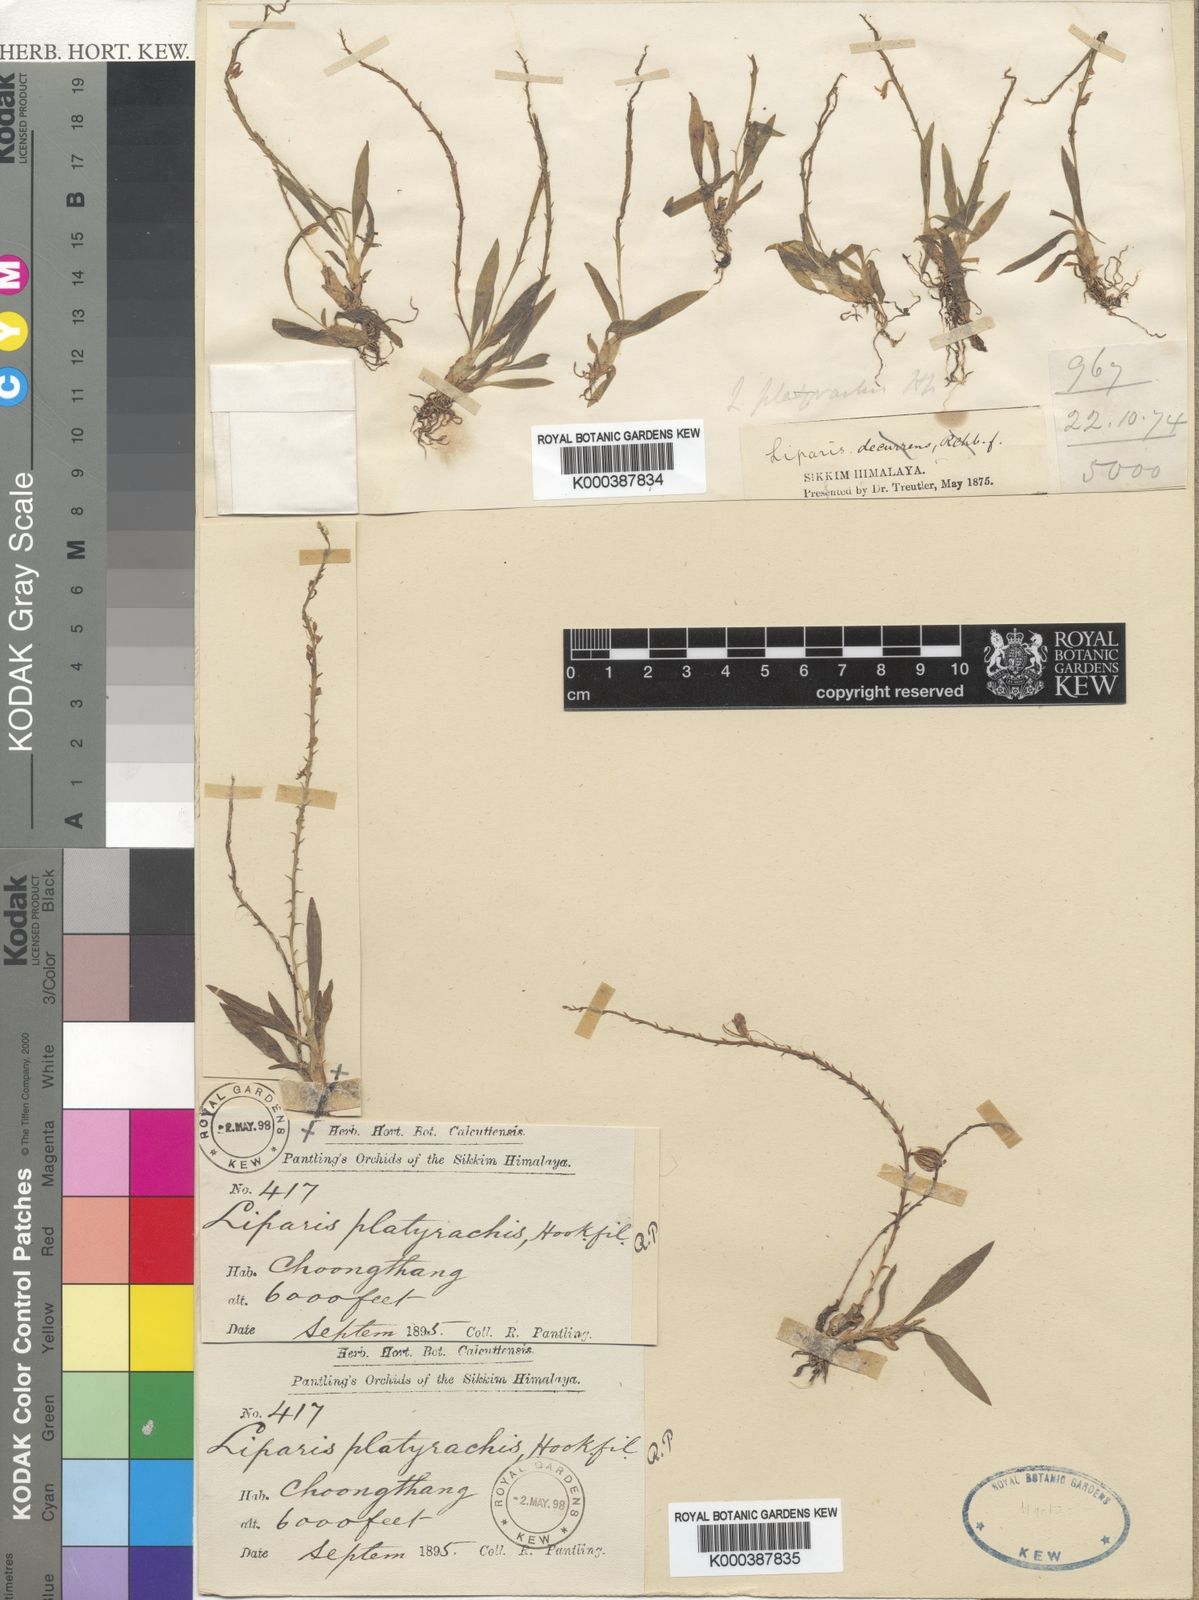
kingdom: Plantae
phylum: Tracheophyta
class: Liliopsida
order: Asparagales
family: Orchidaceae
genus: Liparis
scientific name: Liparis platyrachis
